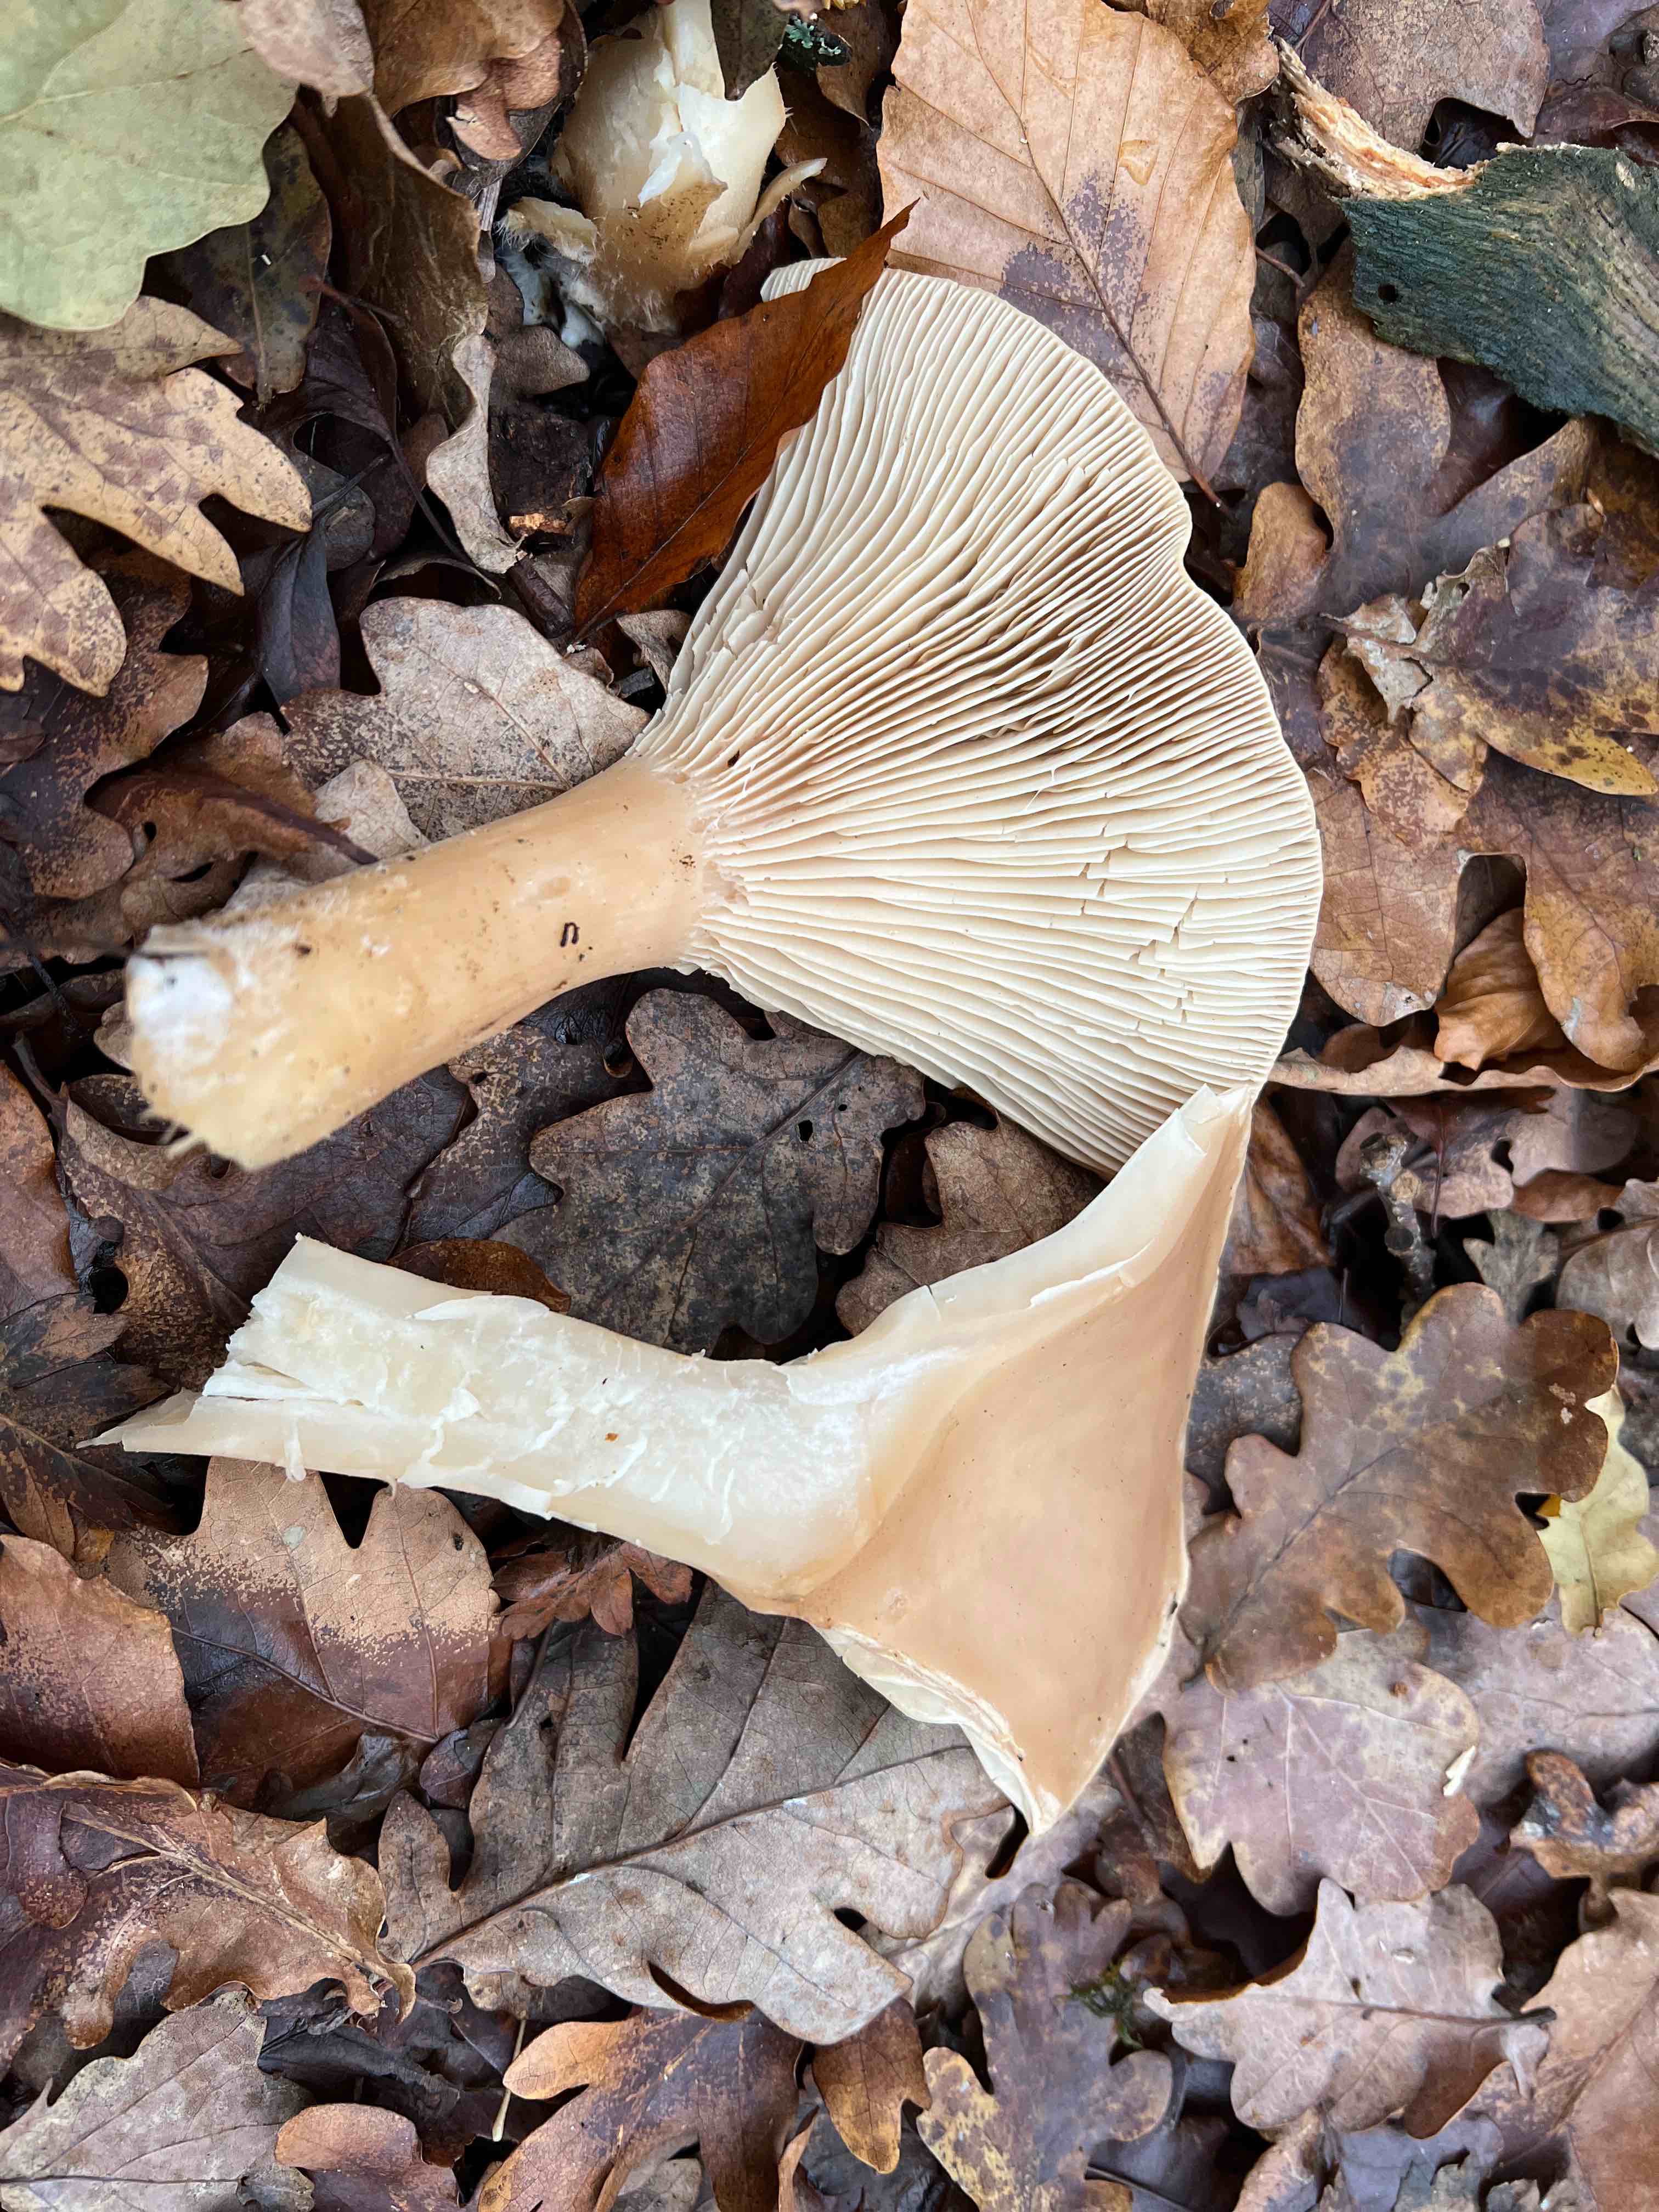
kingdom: Fungi
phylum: Basidiomycota
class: Agaricomycetes
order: Agaricales
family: Tricholomataceae
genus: Infundibulicybe
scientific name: Infundibulicybe geotropa
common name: stor tragthat
